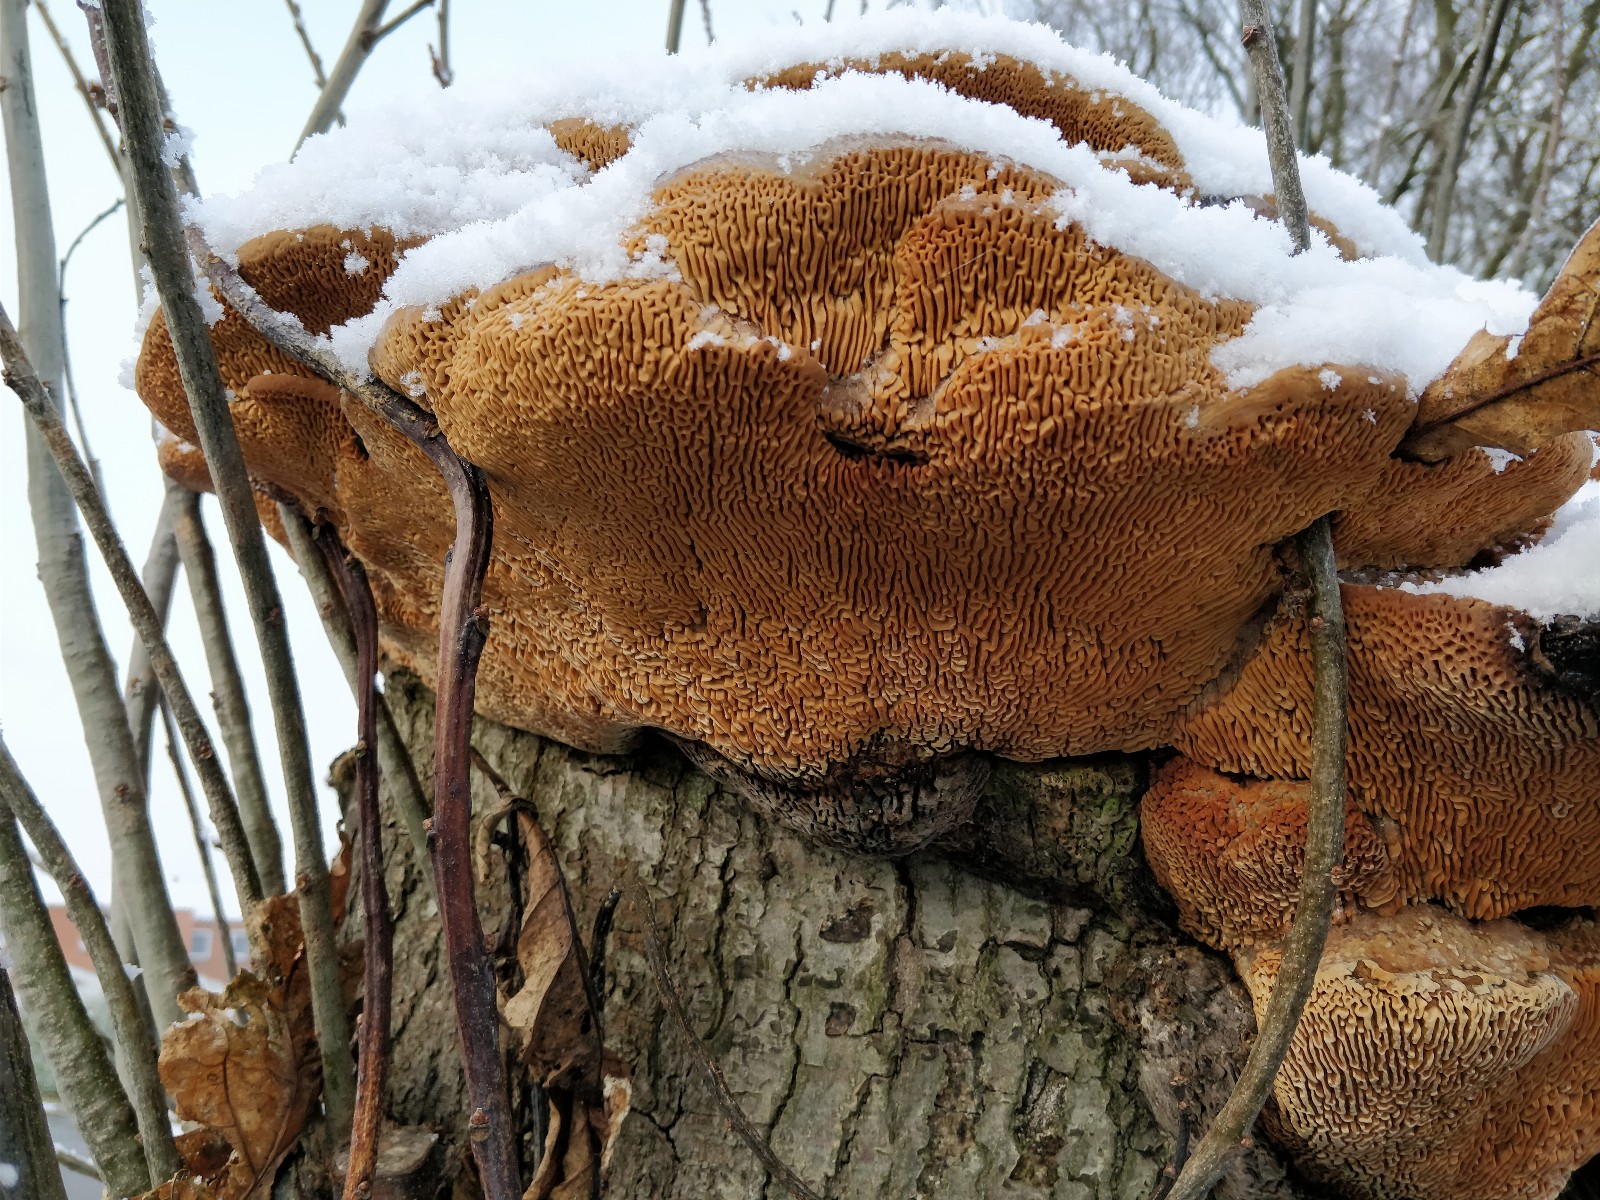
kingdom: Fungi
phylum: Basidiomycota
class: Agaricomycetes
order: Polyporales
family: Fomitopsidaceae
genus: Daedalea
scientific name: Daedalea quercina
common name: ege-labyrintsvamp
